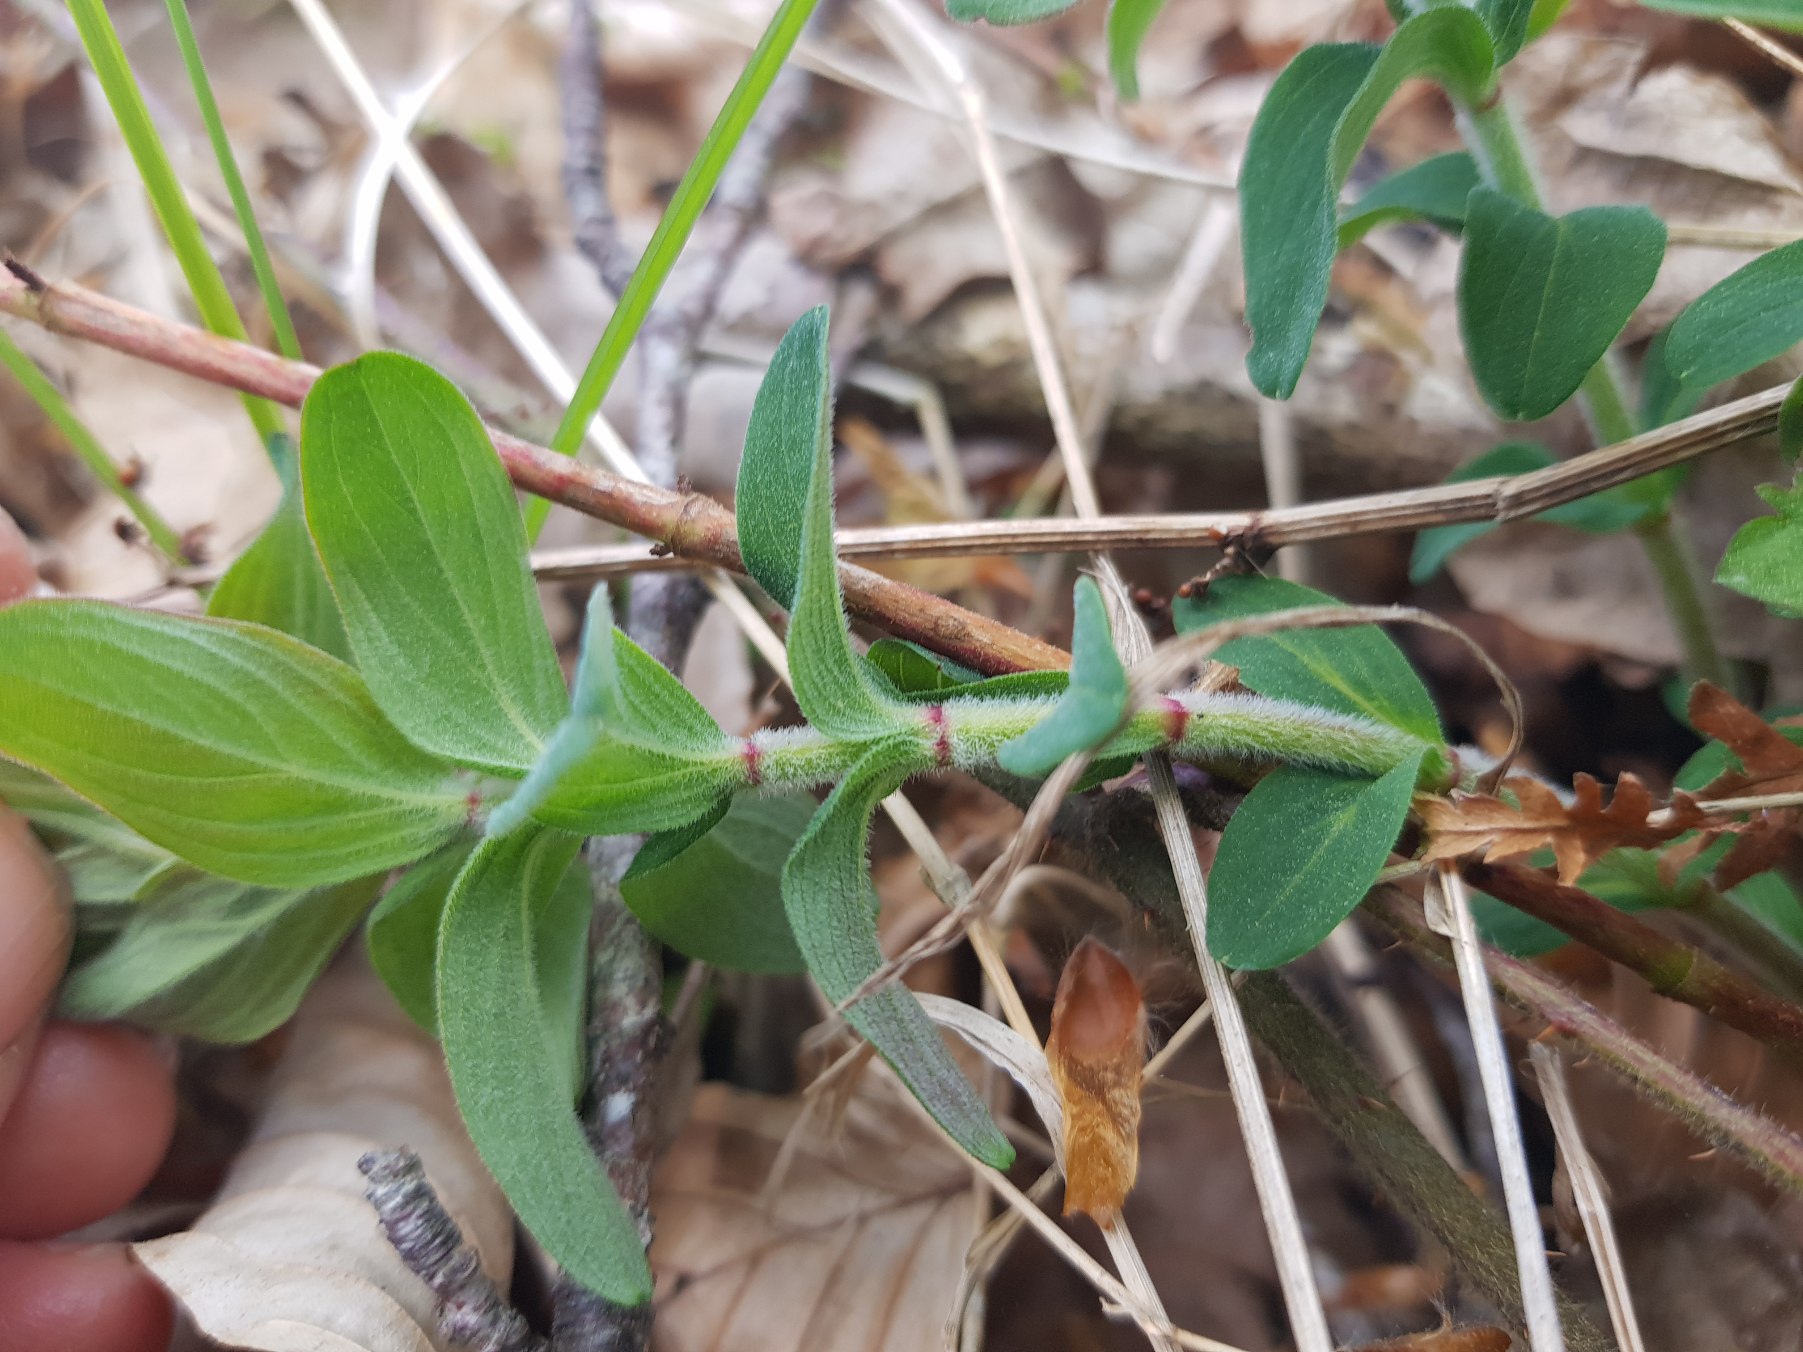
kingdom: Plantae
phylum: Tracheophyta
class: Magnoliopsida
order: Malpighiales
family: Hypericaceae
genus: Hypericum
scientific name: Hypericum hirsutum
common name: Lådden perikon
